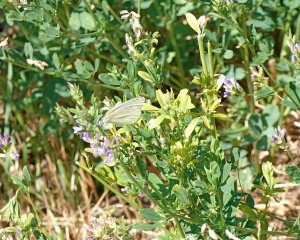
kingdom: Animalia
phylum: Arthropoda
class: Insecta
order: Lepidoptera
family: Pieridae
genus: Pieris
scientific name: Pieris rapae
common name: Cabbage White
